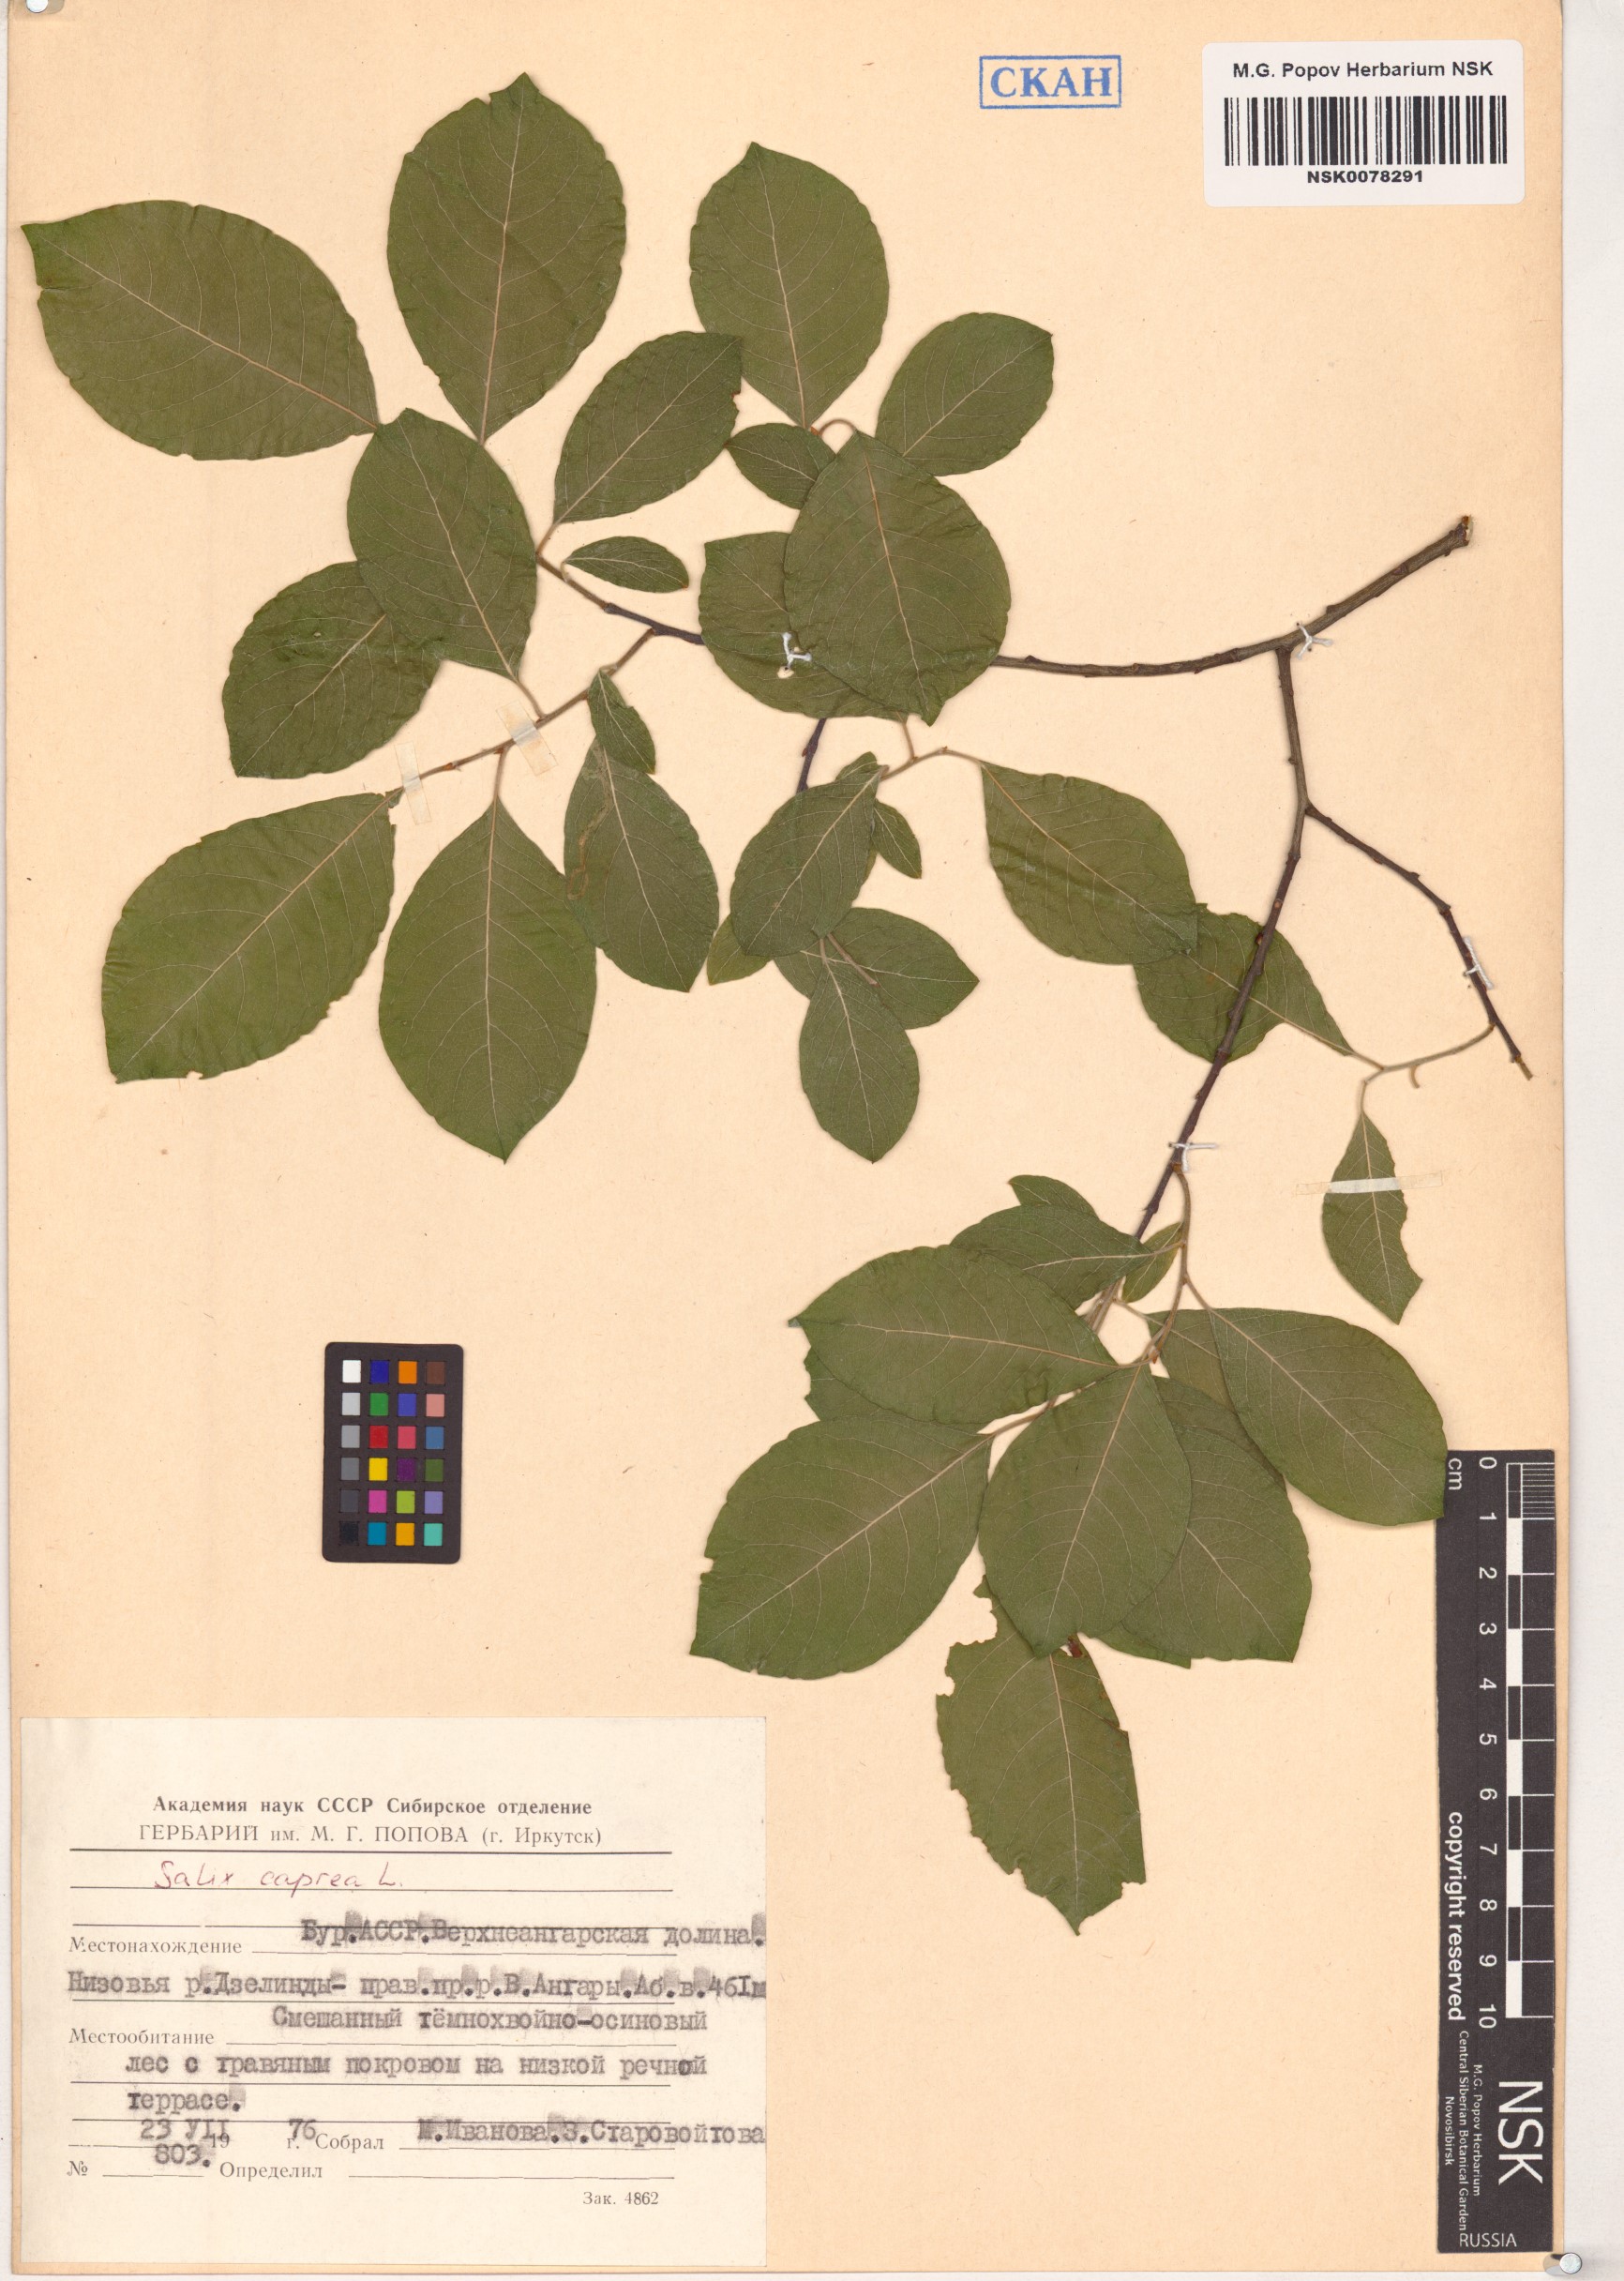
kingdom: Plantae
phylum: Tracheophyta
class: Magnoliopsida
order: Malpighiales
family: Salicaceae
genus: Salix
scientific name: Salix caprea
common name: Goat willow
